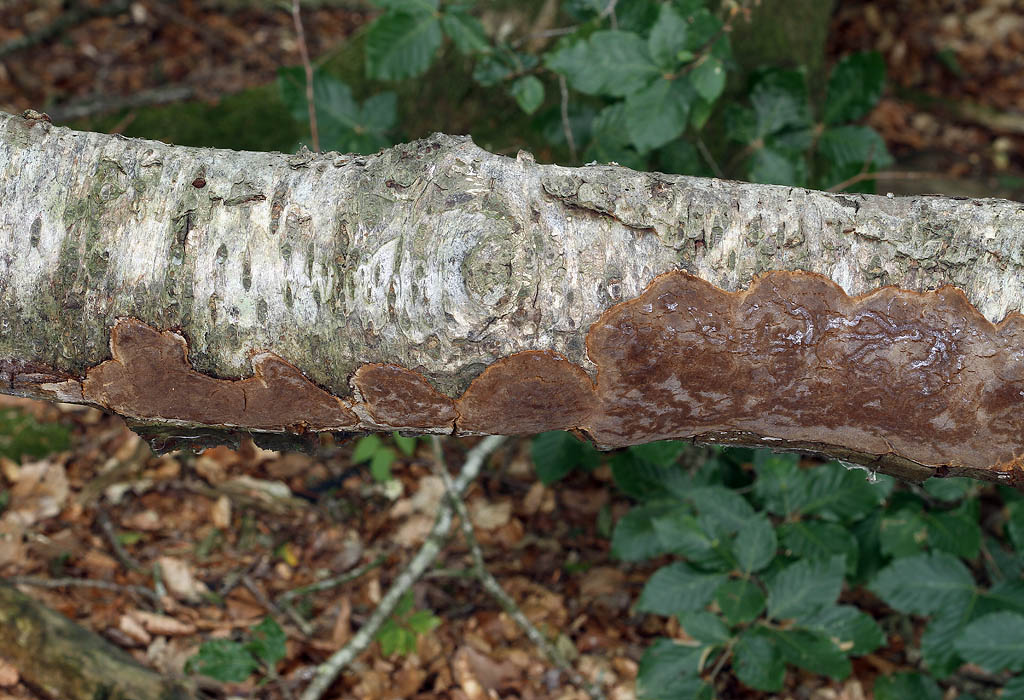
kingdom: Fungi
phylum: Basidiomycota
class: Agaricomycetes
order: Hymenochaetales
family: Hymenochaetaceae
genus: Phellinus
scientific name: Phellinus laevigatus
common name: glat ildporesvamp
